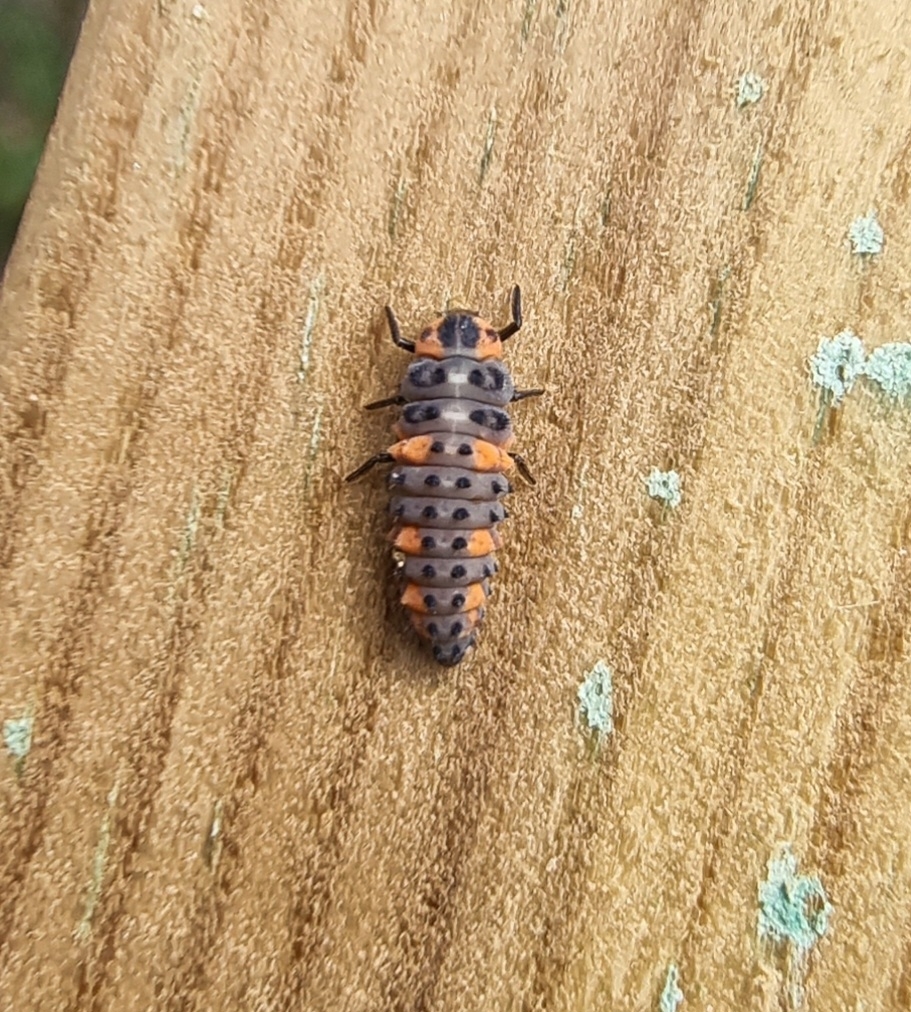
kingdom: Animalia
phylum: Arthropoda
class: Insecta
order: Coleoptera
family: Coccinellidae
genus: Coccinella
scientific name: Coccinella septempunctata
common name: Syvplettet mariehøne
